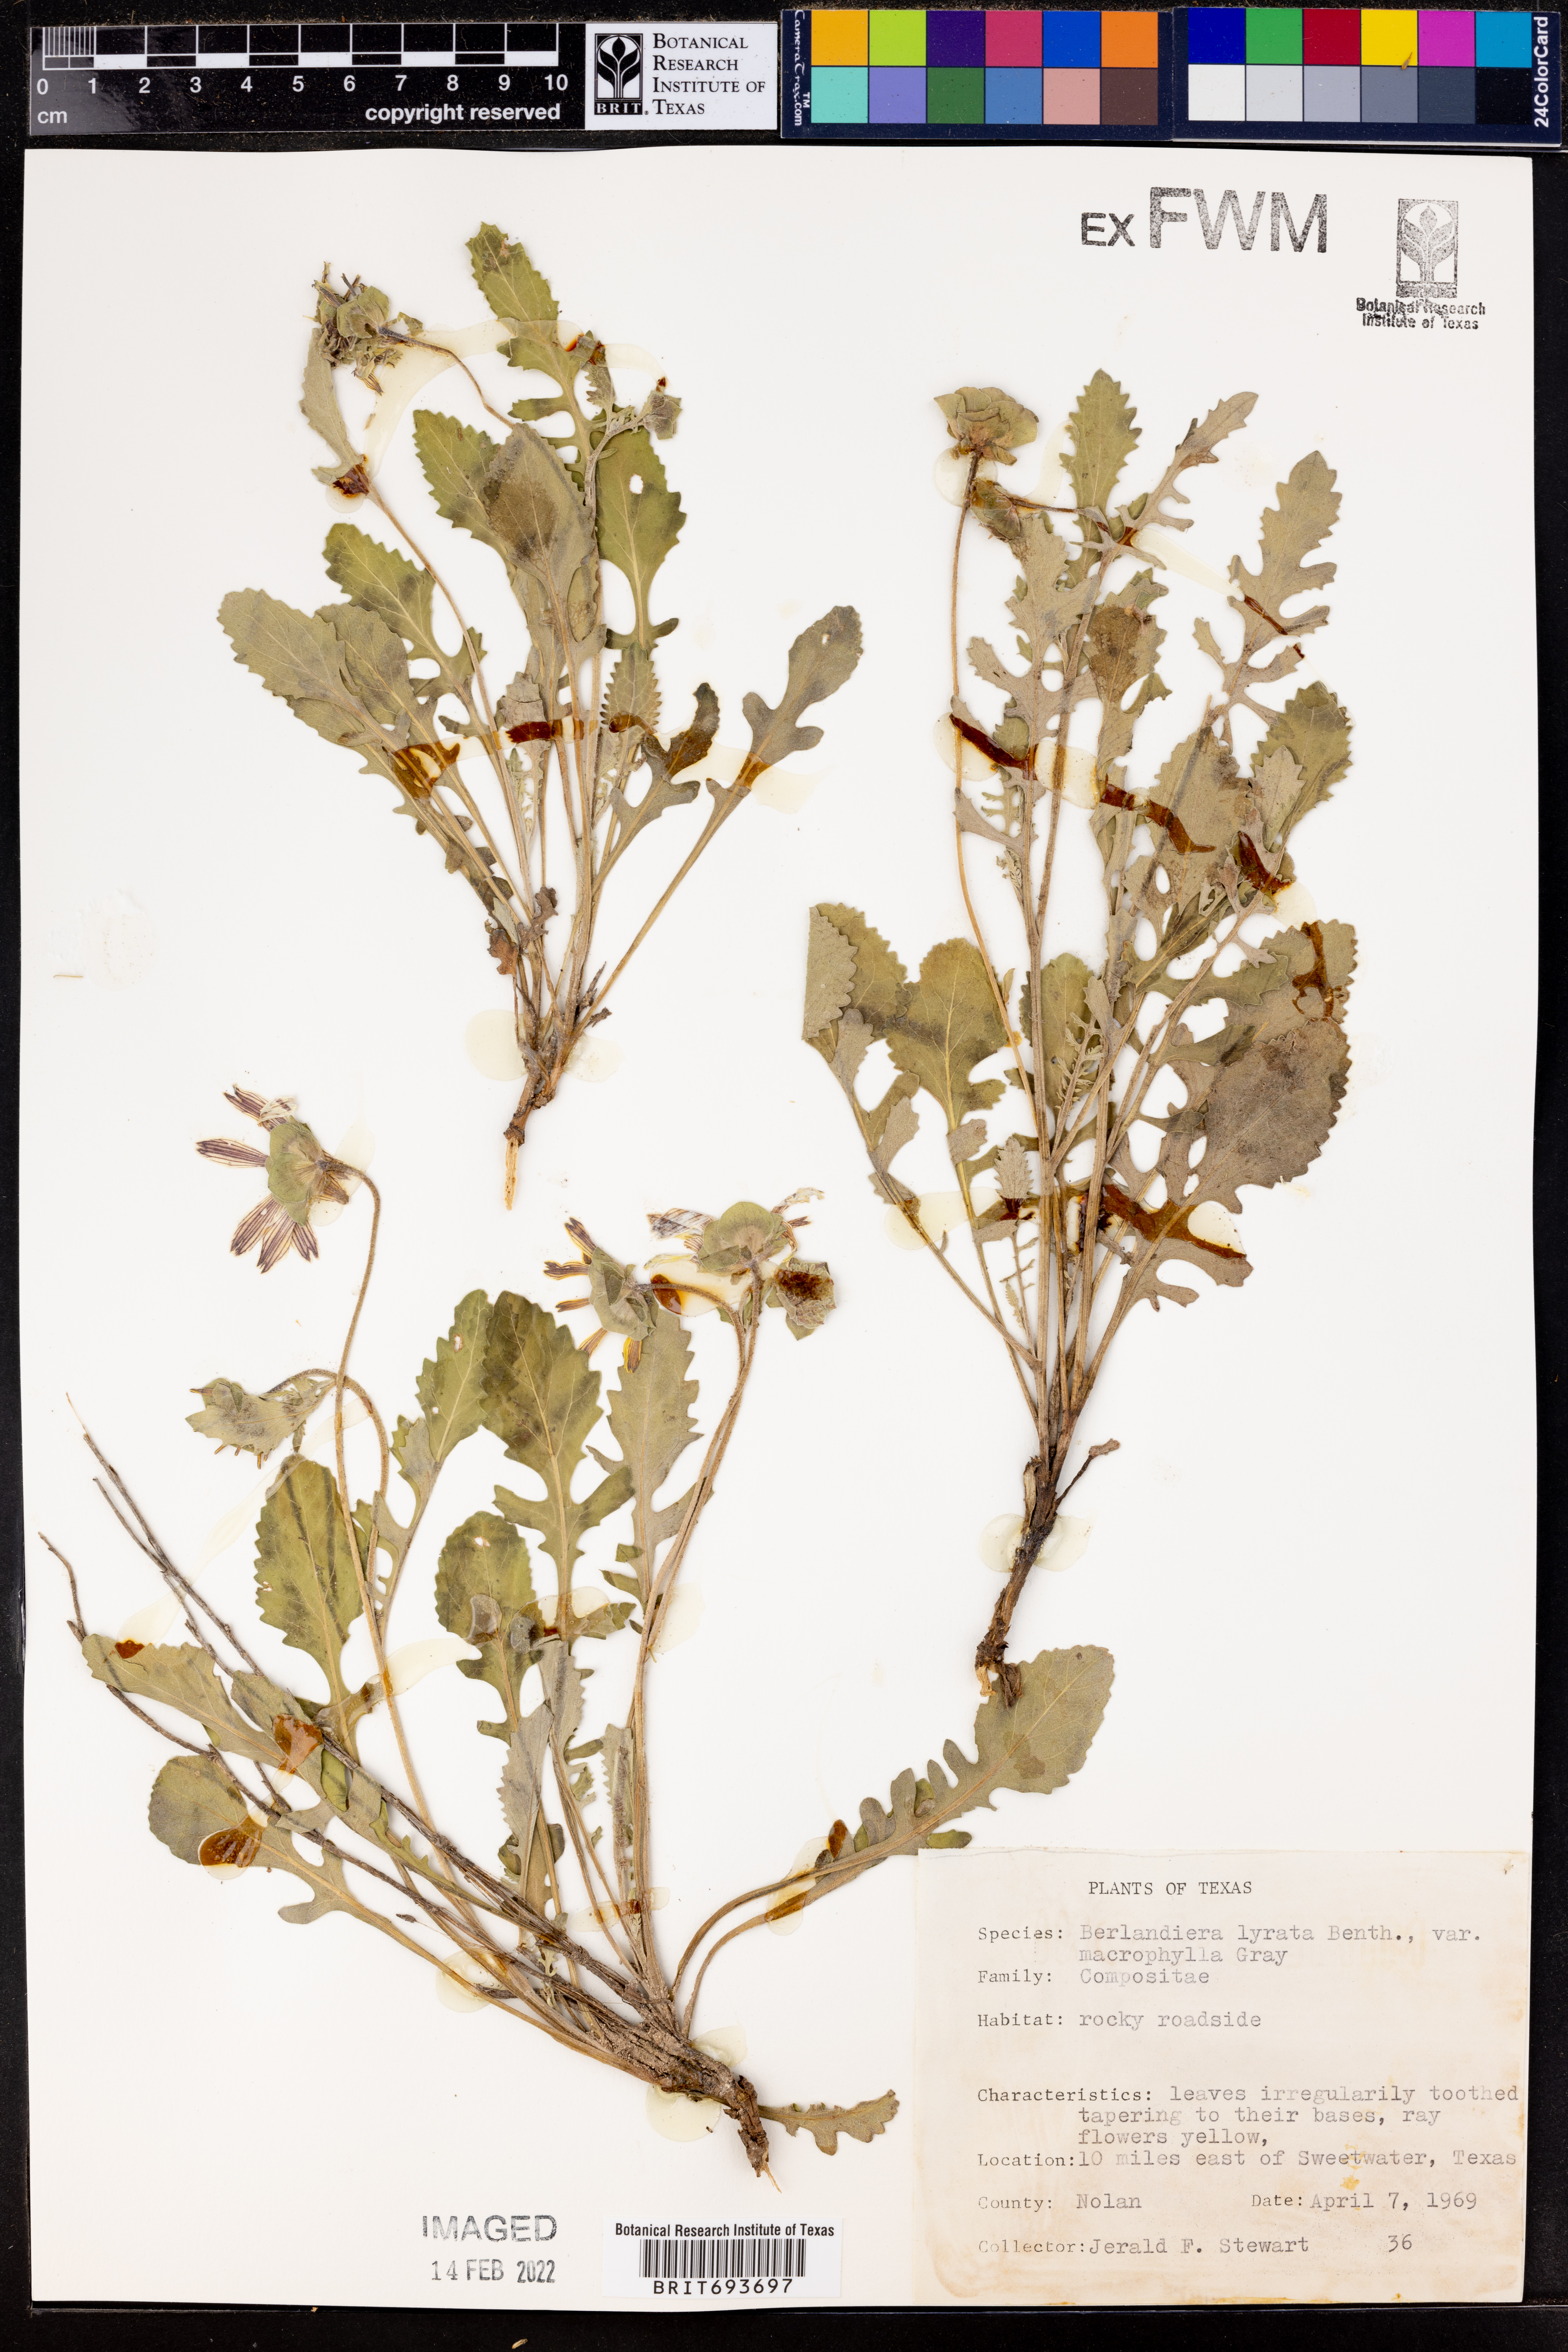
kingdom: Plantae
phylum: Tracheophyta
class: Magnoliopsida
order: Asterales
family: Asteraceae
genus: Berlandiera
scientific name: Berlandiera macrophylla
